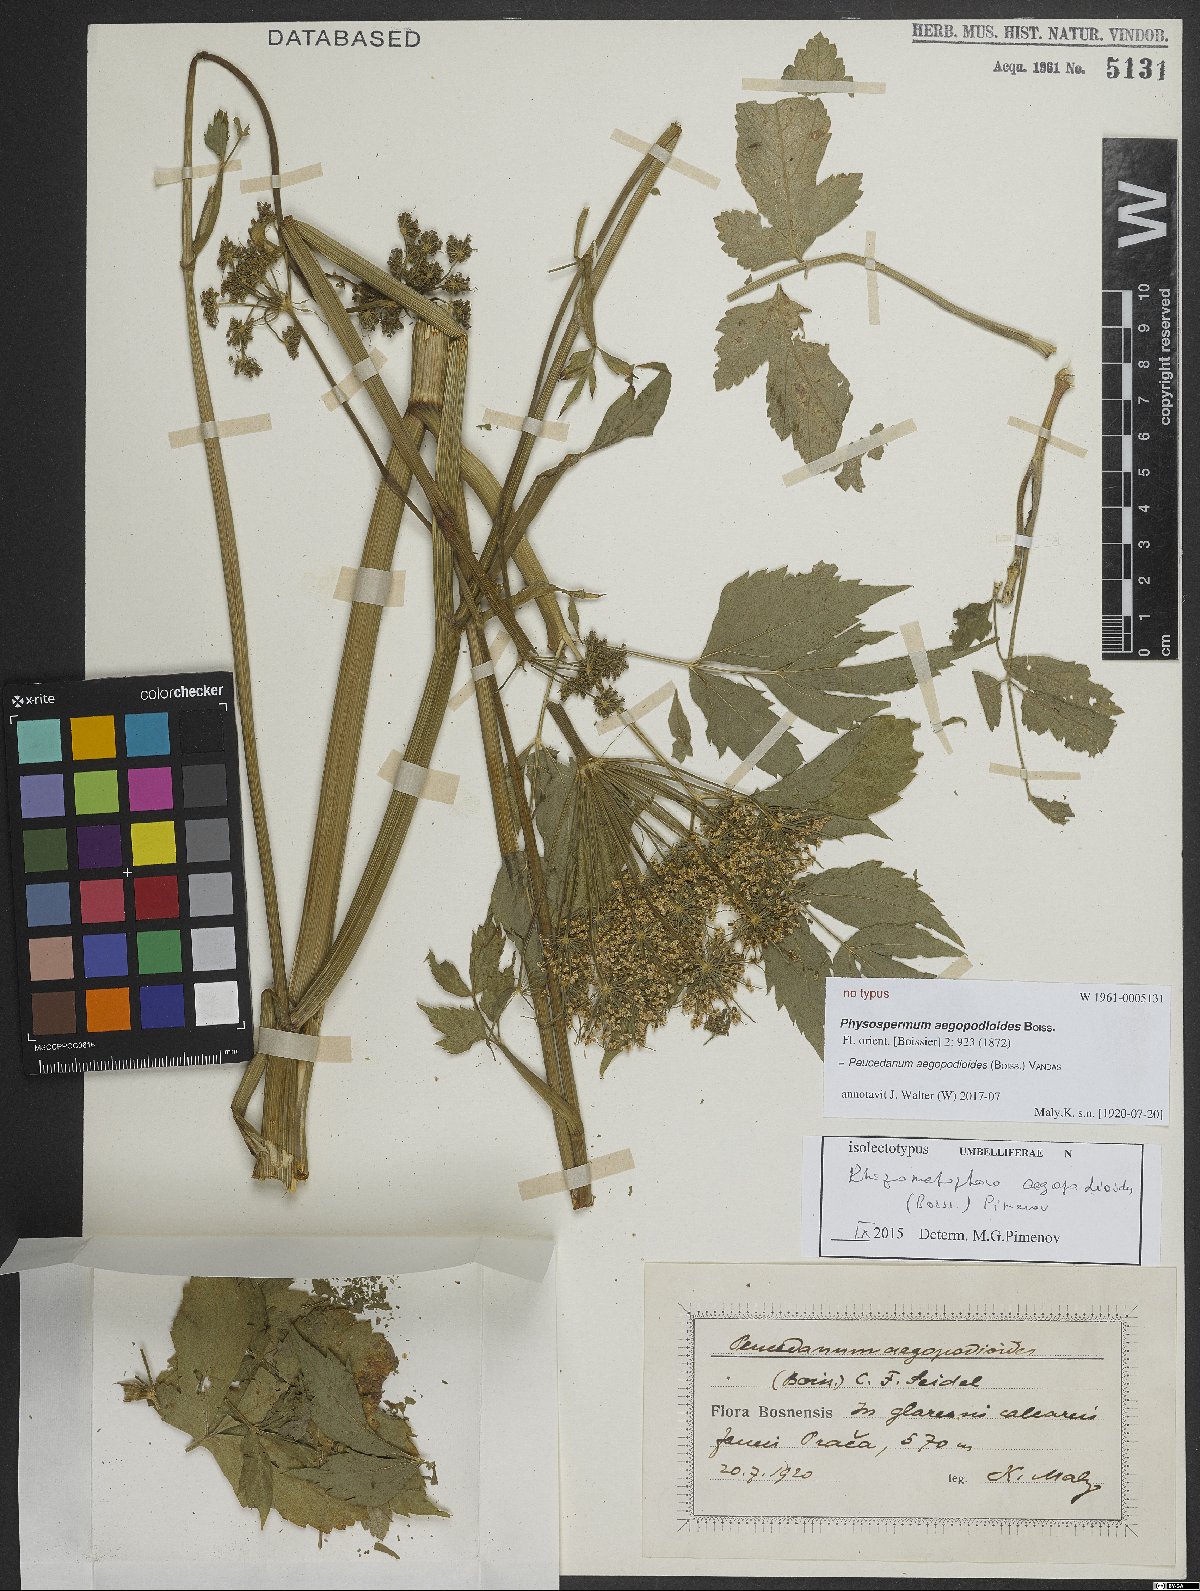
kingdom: Plantae
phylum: Tracheophyta
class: Magnoliopsida
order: Apiales
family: Apiaceae
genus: Rhizomatophora
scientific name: Rhizomatophora aegopodioides
